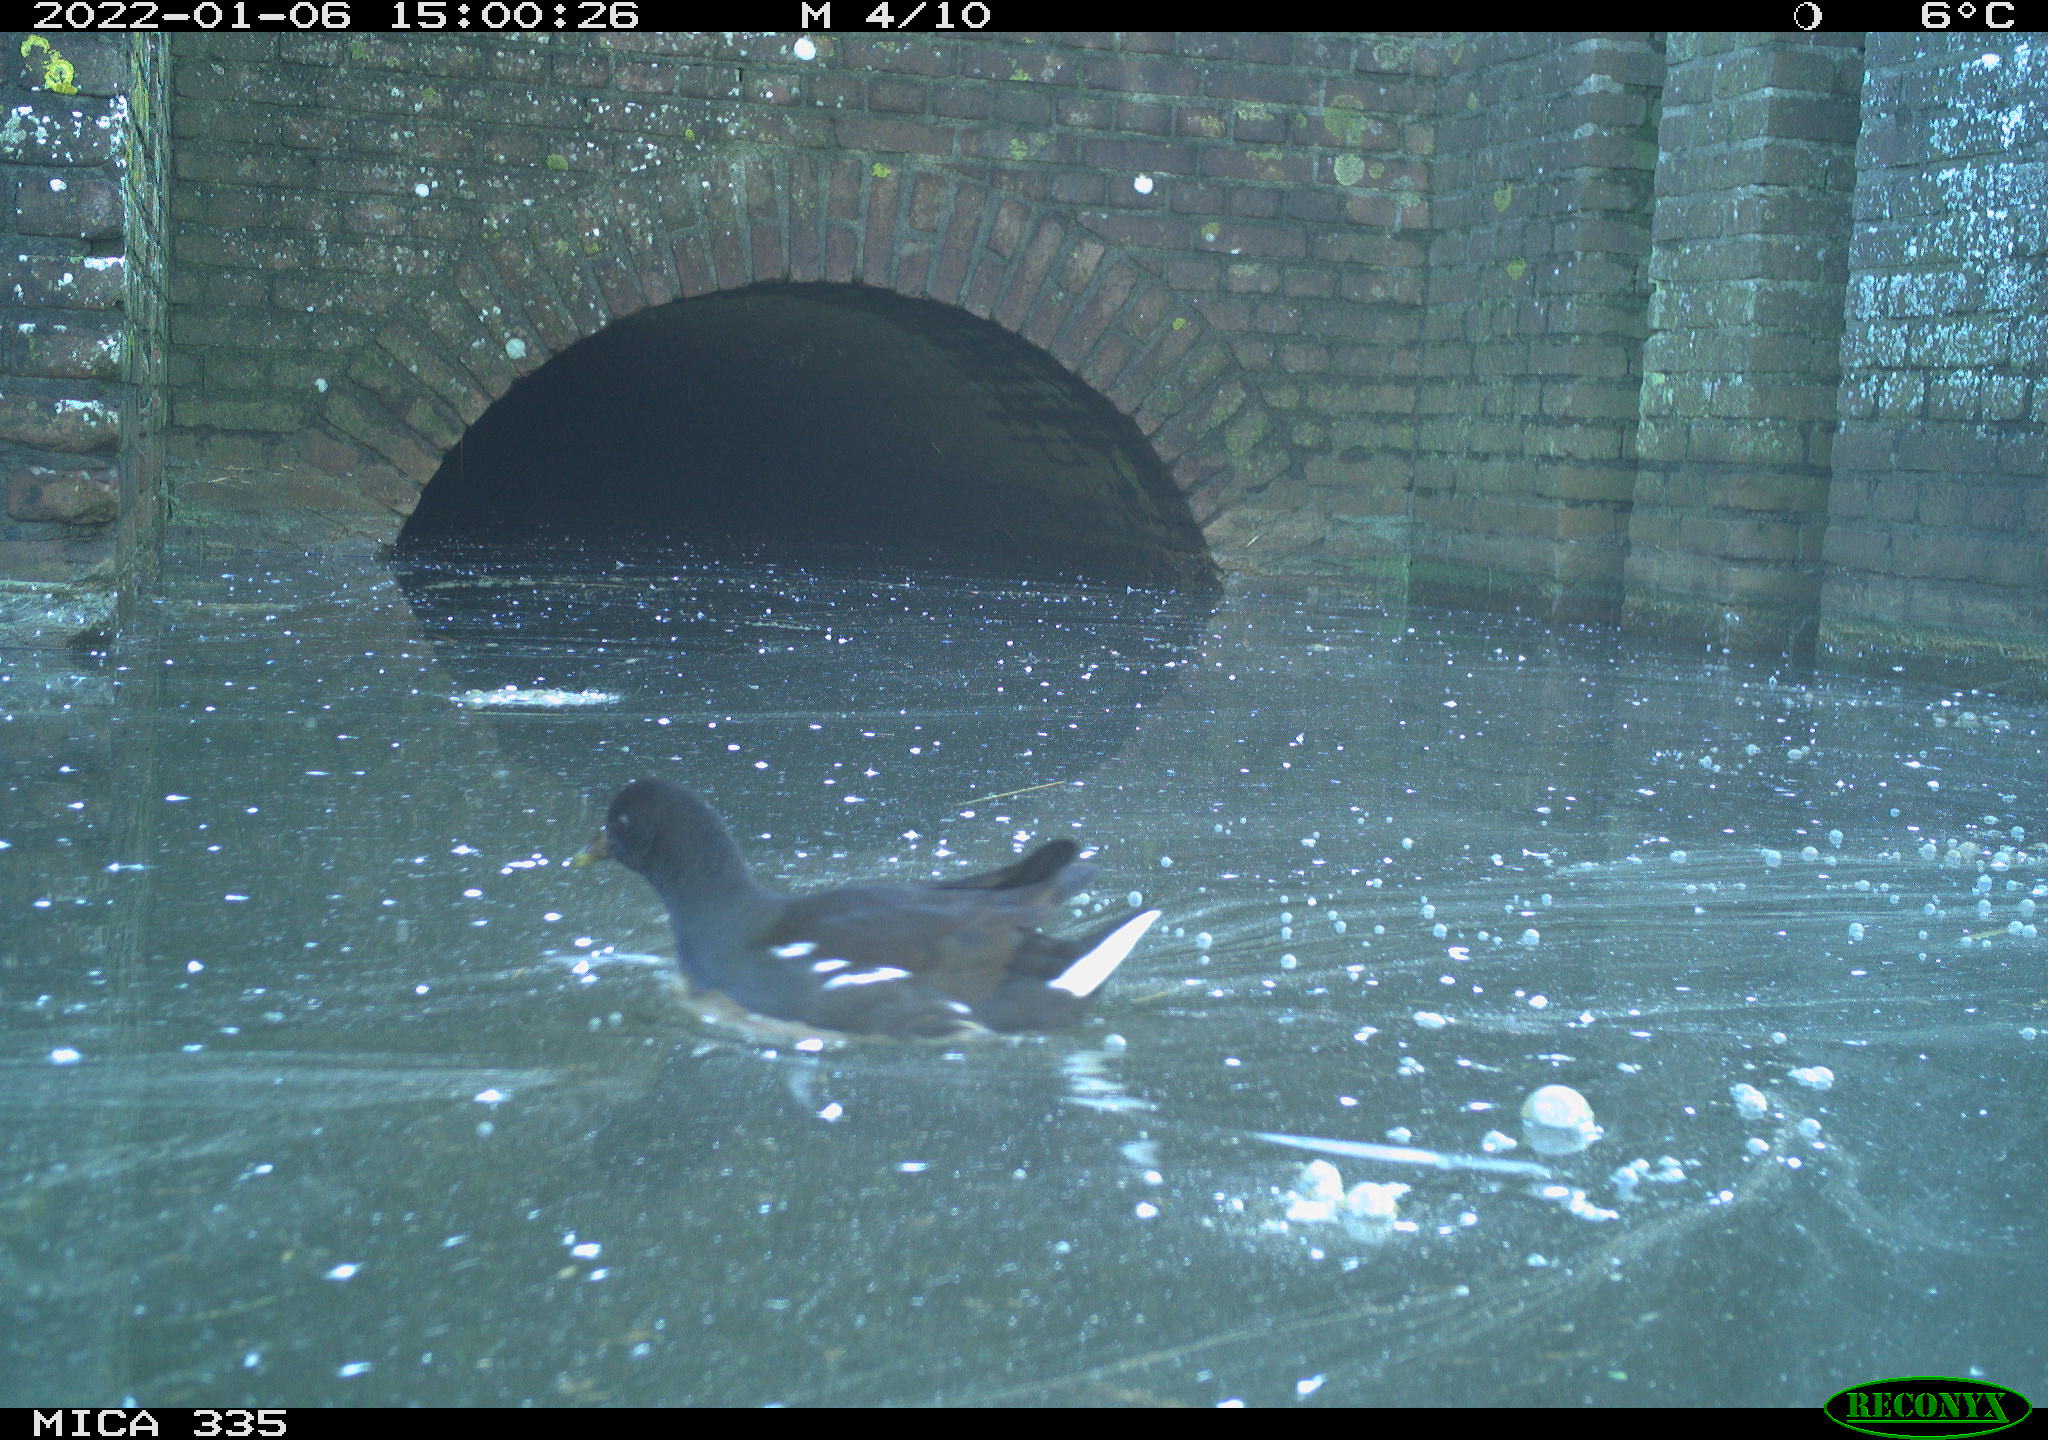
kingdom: Animalia
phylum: Chordata
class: Aves
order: Gruiformes
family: Rallidae
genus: Gallinula
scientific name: Gallinula chloropus
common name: Common moorhen
